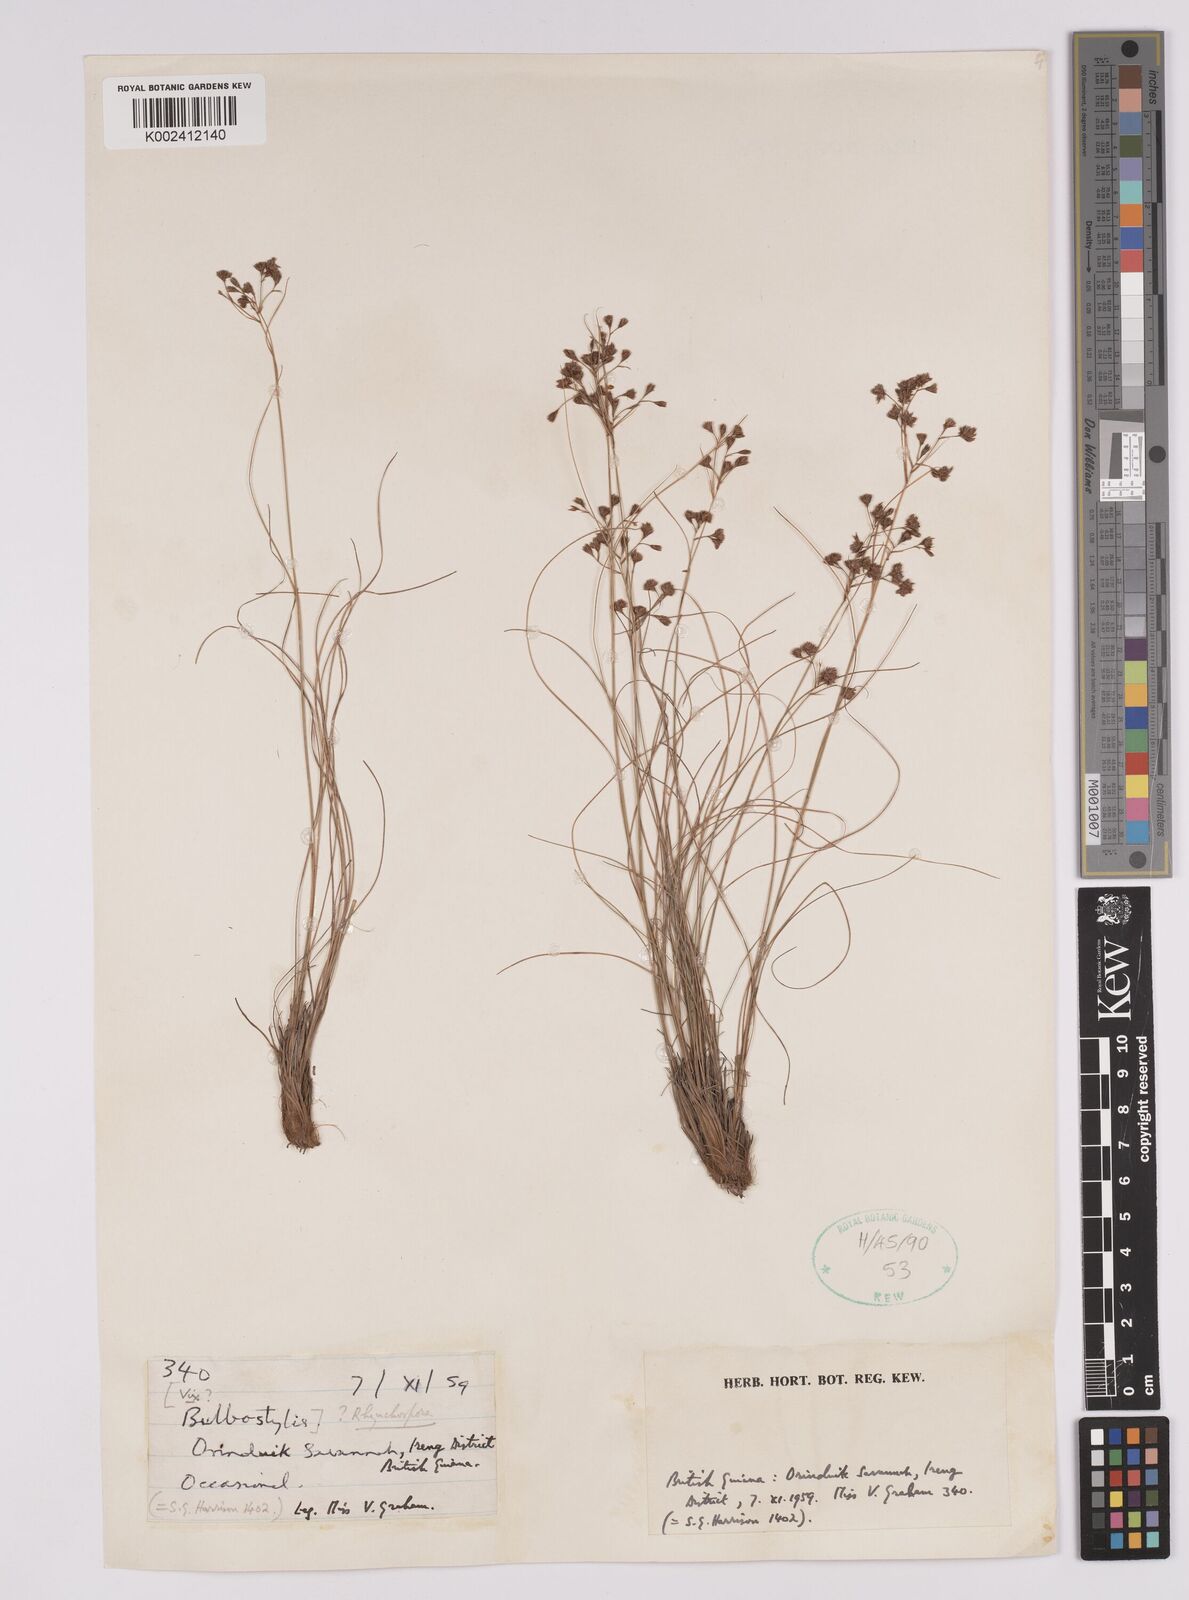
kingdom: Plantae
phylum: Tracheophyta
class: Liliopsida
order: Poales
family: Cyperaceae
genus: Rhynchospora
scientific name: Rhynchospora
